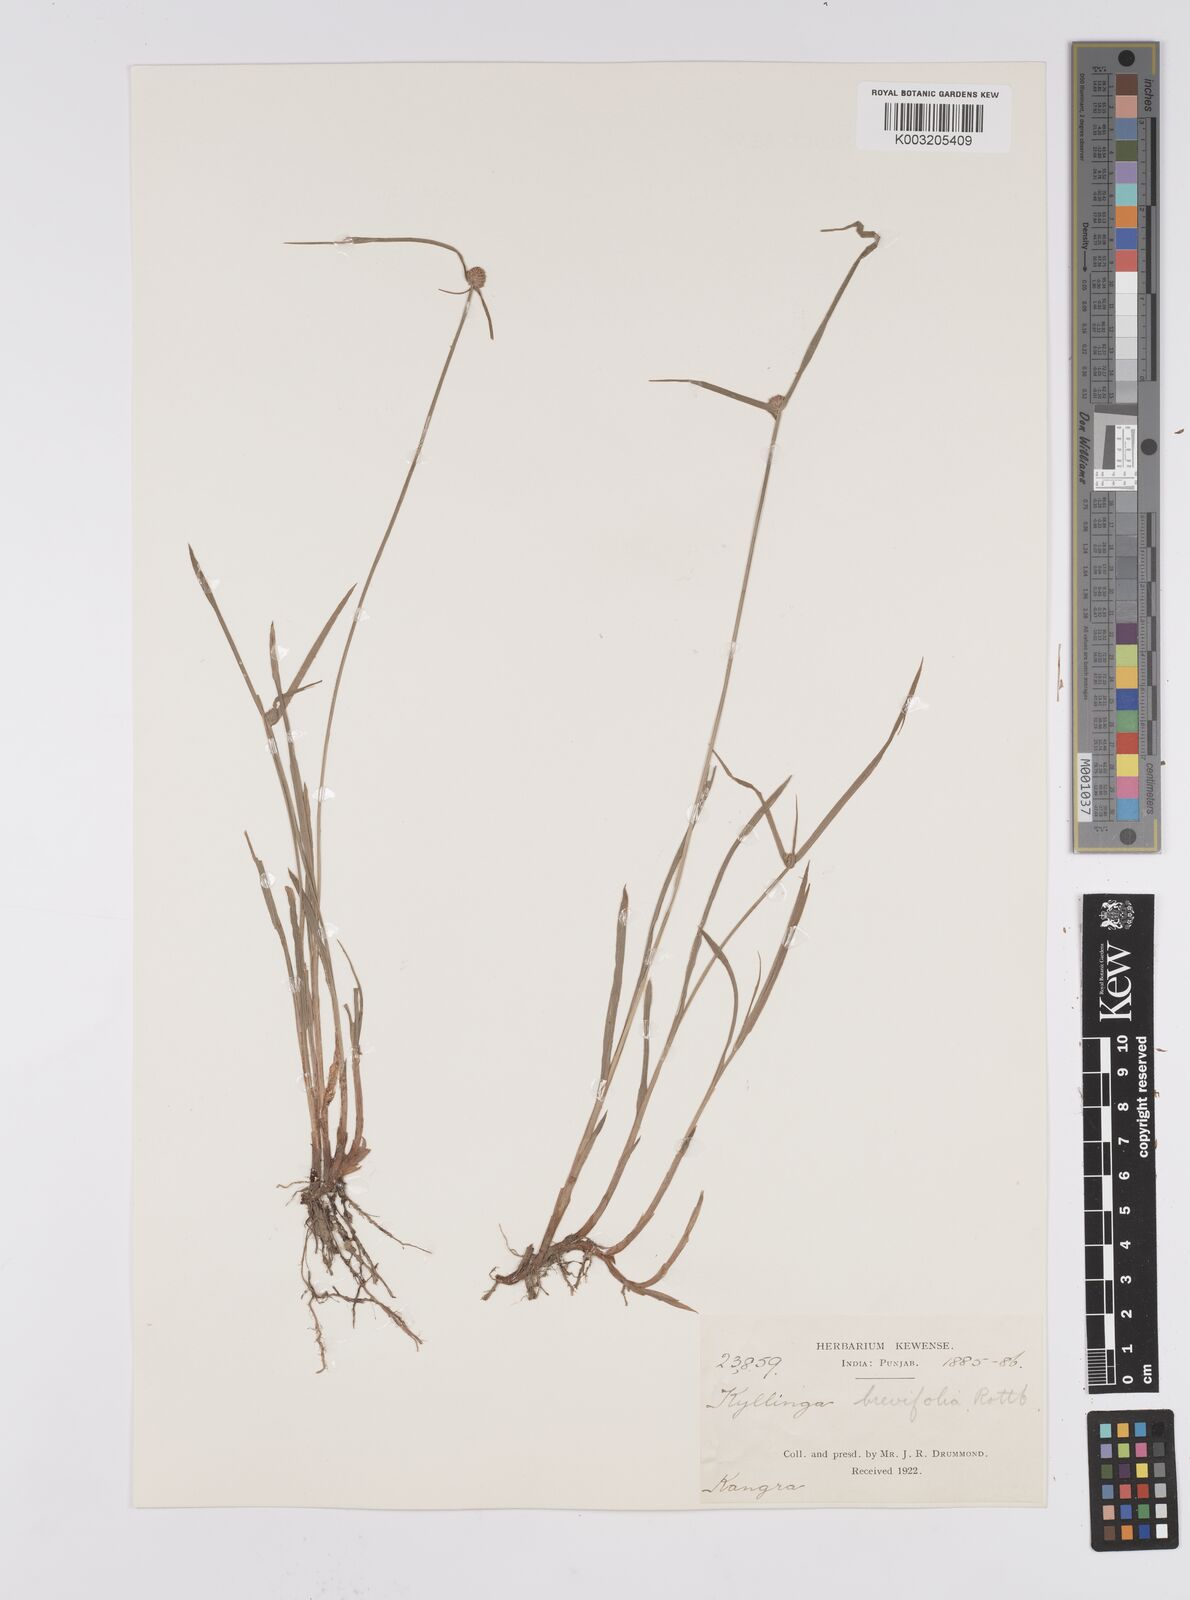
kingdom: Plantae
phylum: Tracheophyta
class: Liliopsida
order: Poales
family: Cyperaceae
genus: Cyperus
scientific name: Cyperus brevifolius
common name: Globe kyllinga
